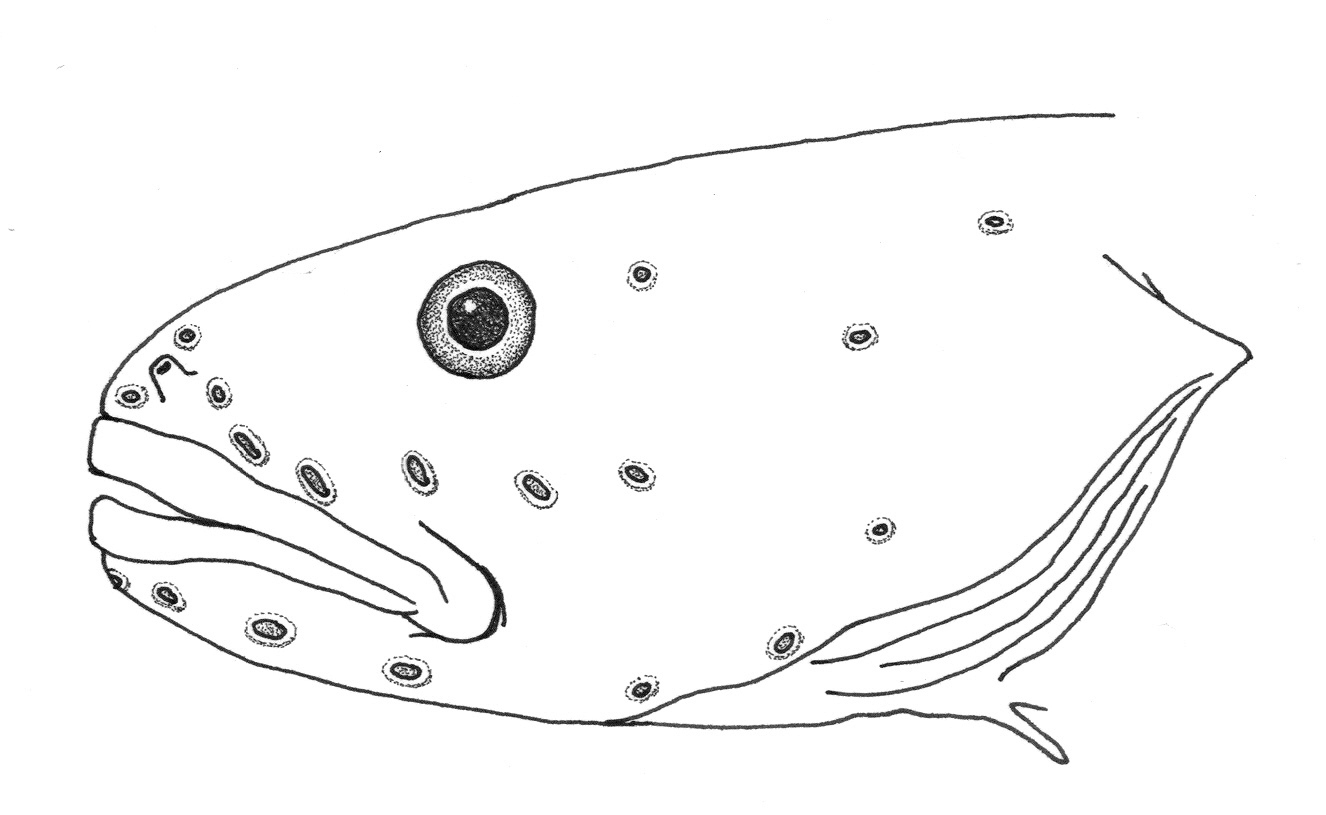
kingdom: Animalia
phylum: Chordata
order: Perciformes
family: Zoarcidae
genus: Pyrolycus
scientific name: Pyrolycus
